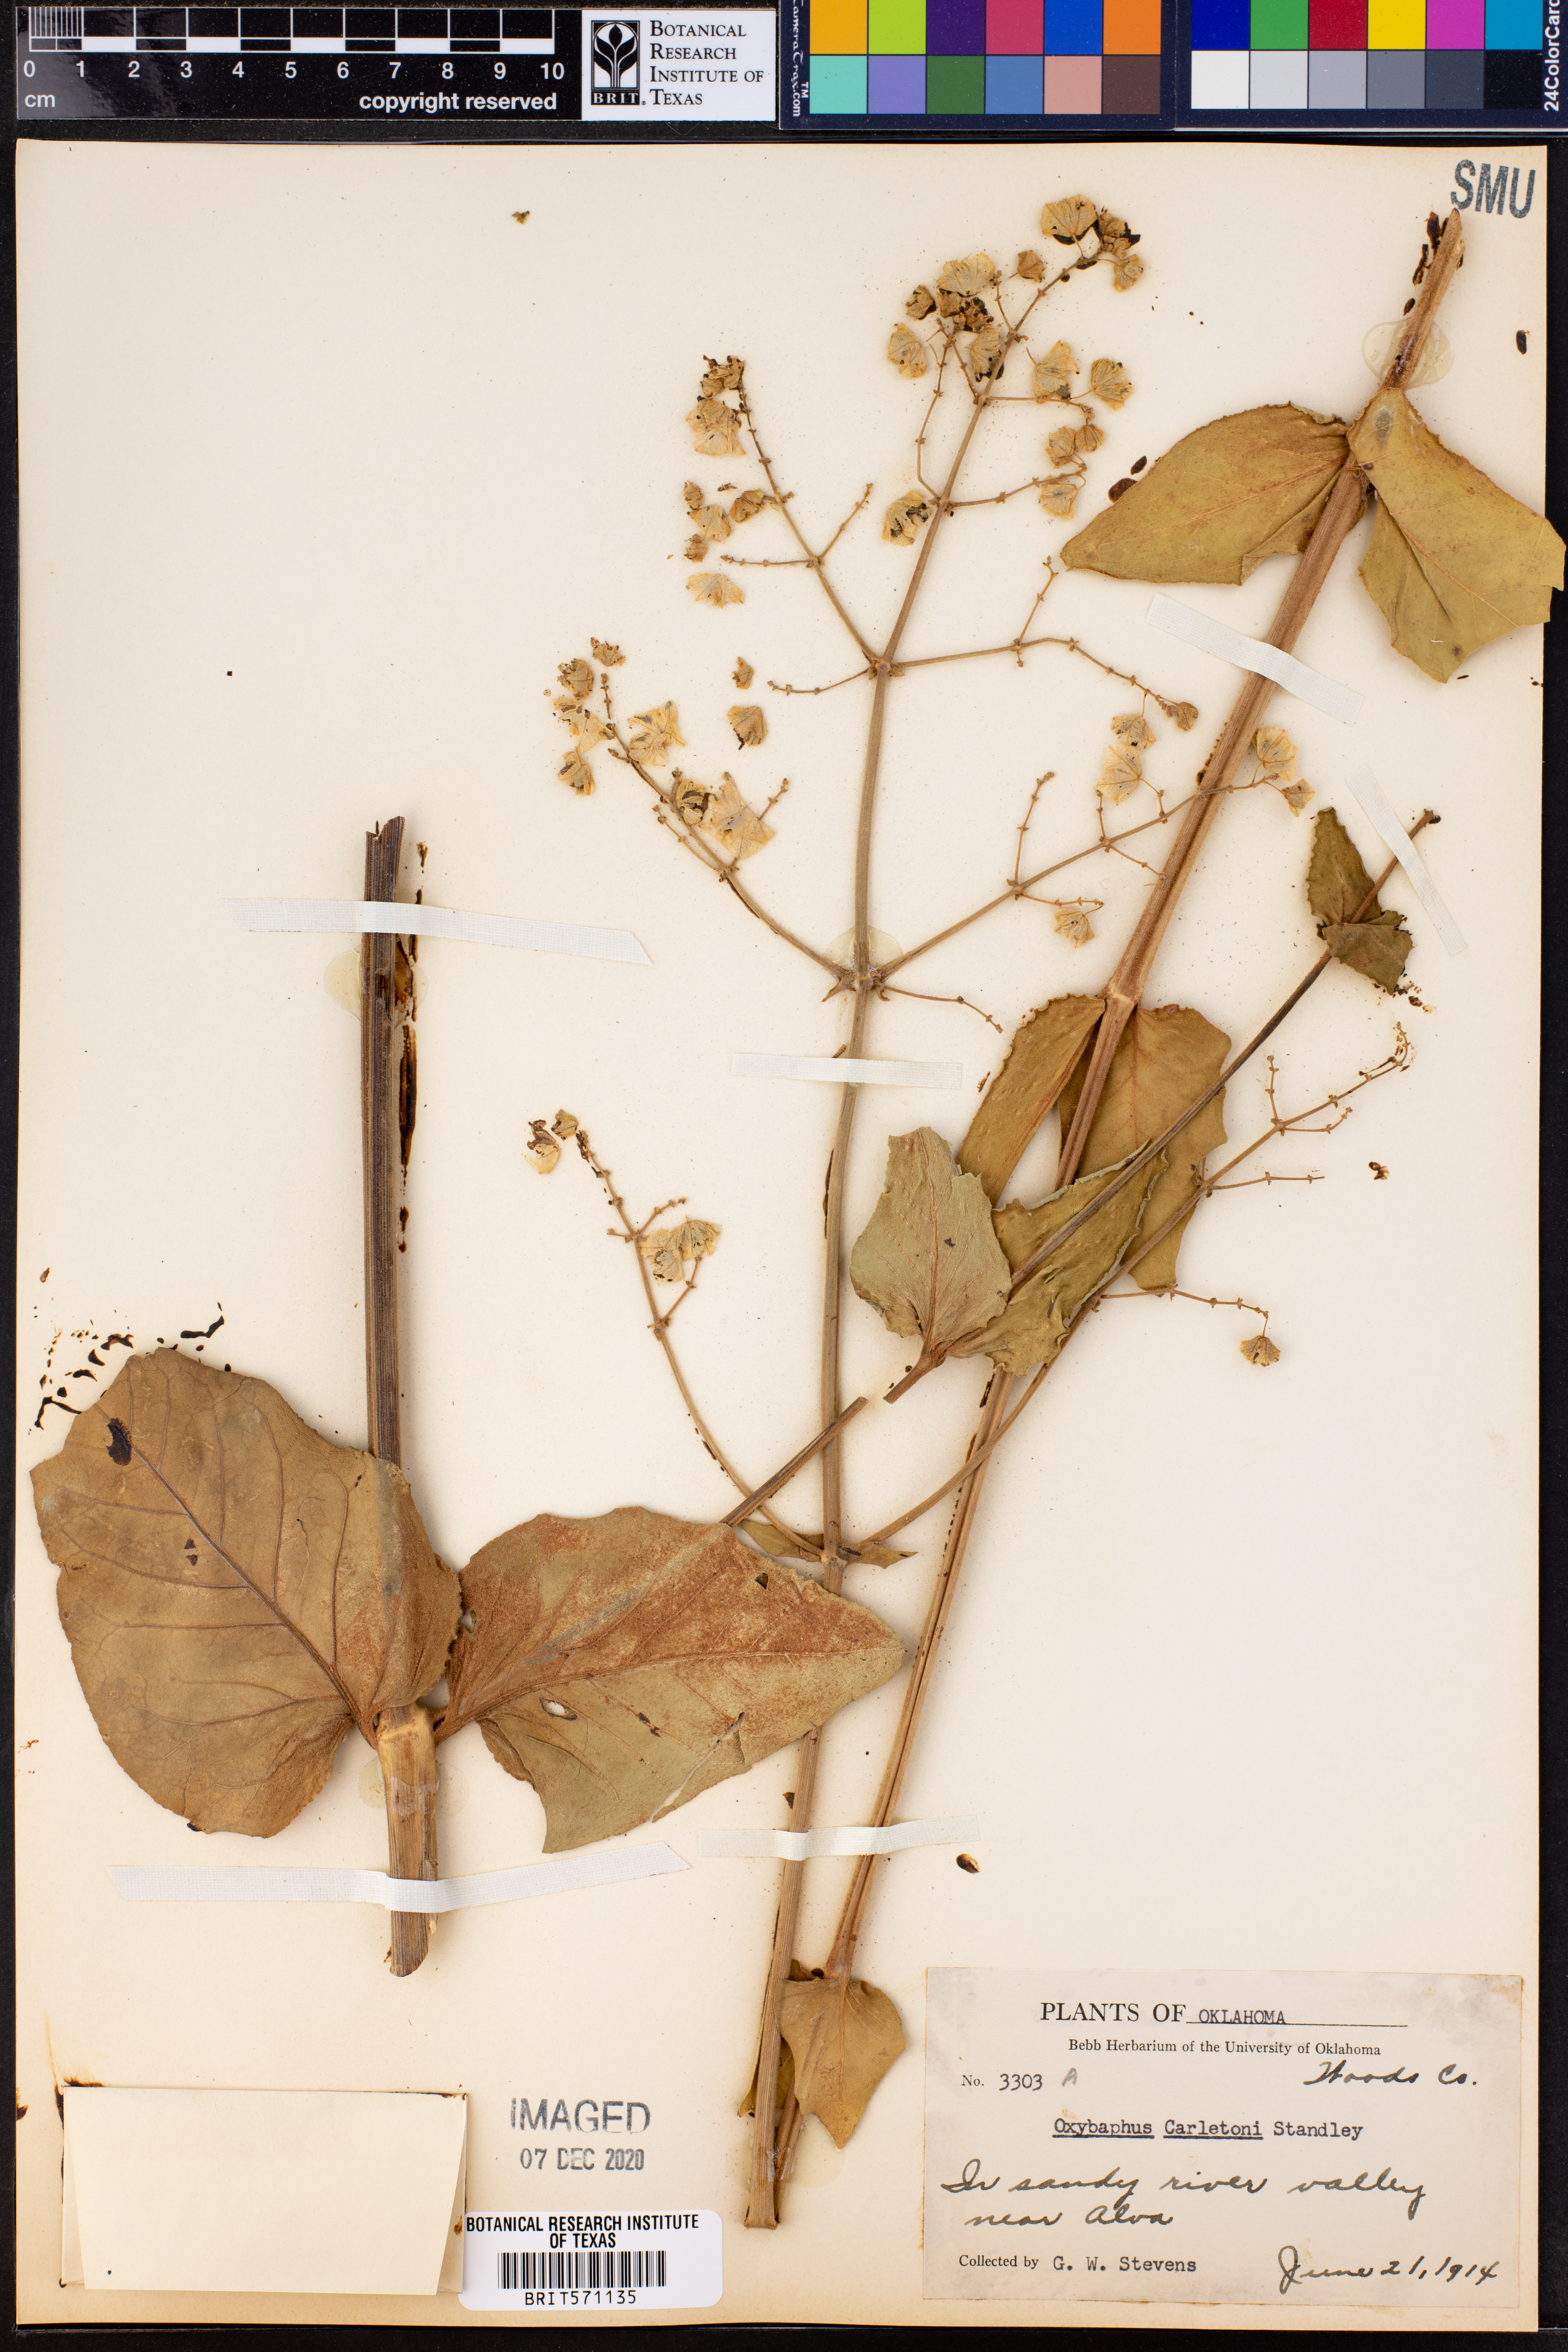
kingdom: Plantae
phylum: Tracheophyta
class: Magnoliopsida
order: Caryophyllales
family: Nyctaginaceae
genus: Mirabilis
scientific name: Mirabilis glabra
